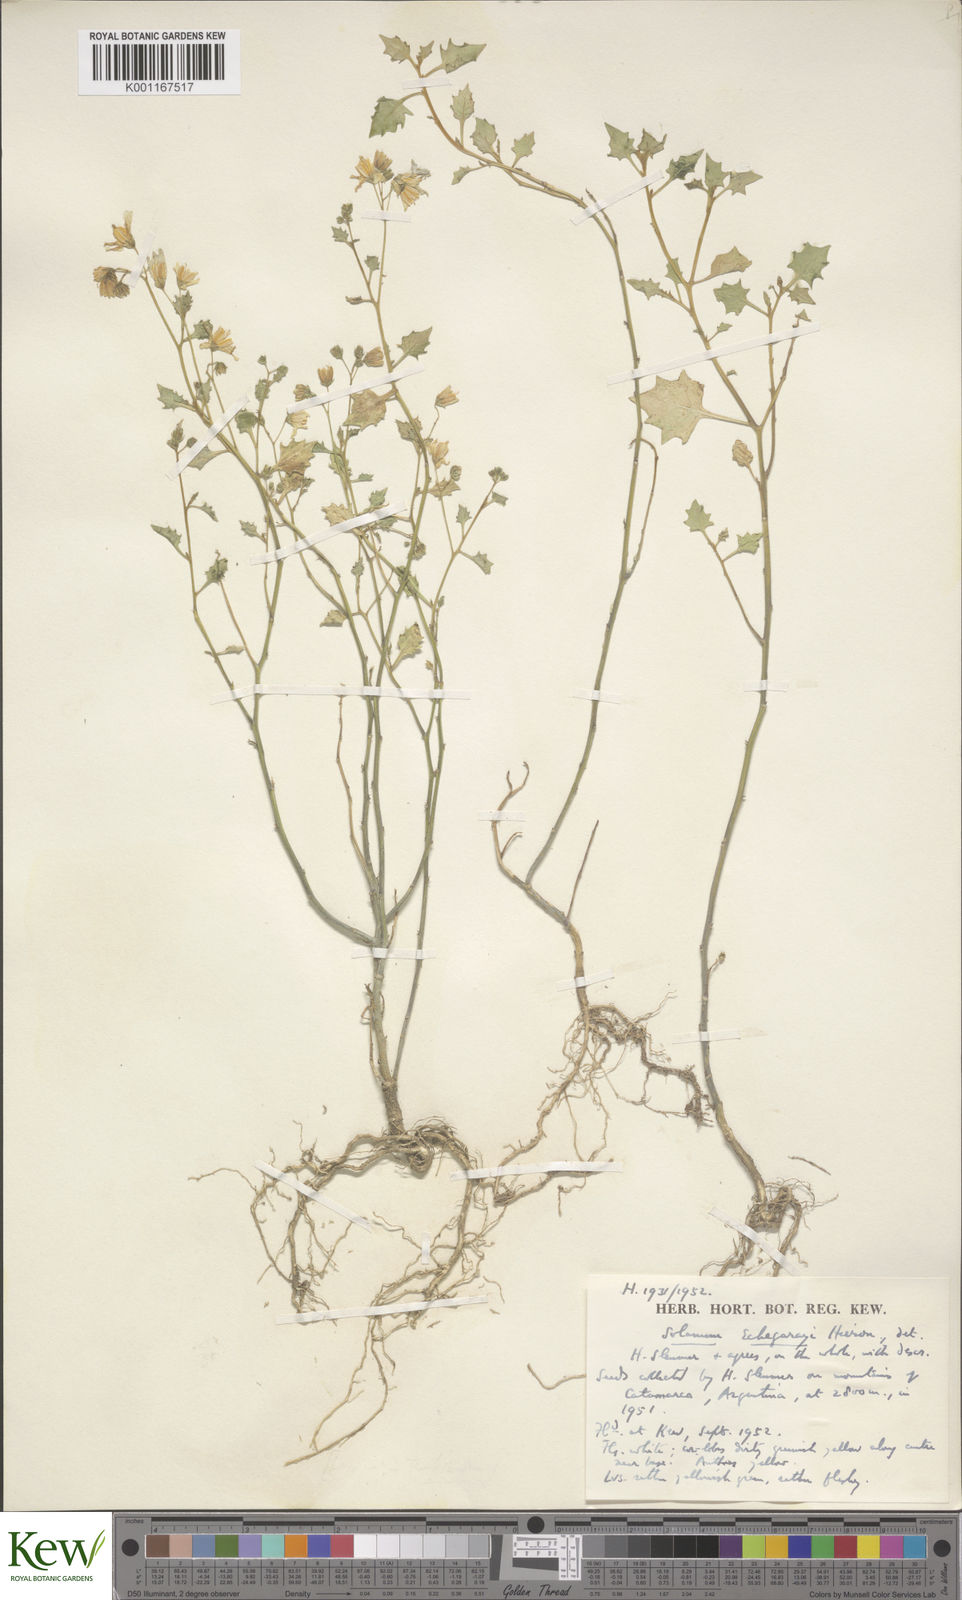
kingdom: Plantae
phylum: Tracheophyta
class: Magnoliopsida
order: Solanales
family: Solanaceae
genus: Solanum
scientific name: Solanum echegarayi
